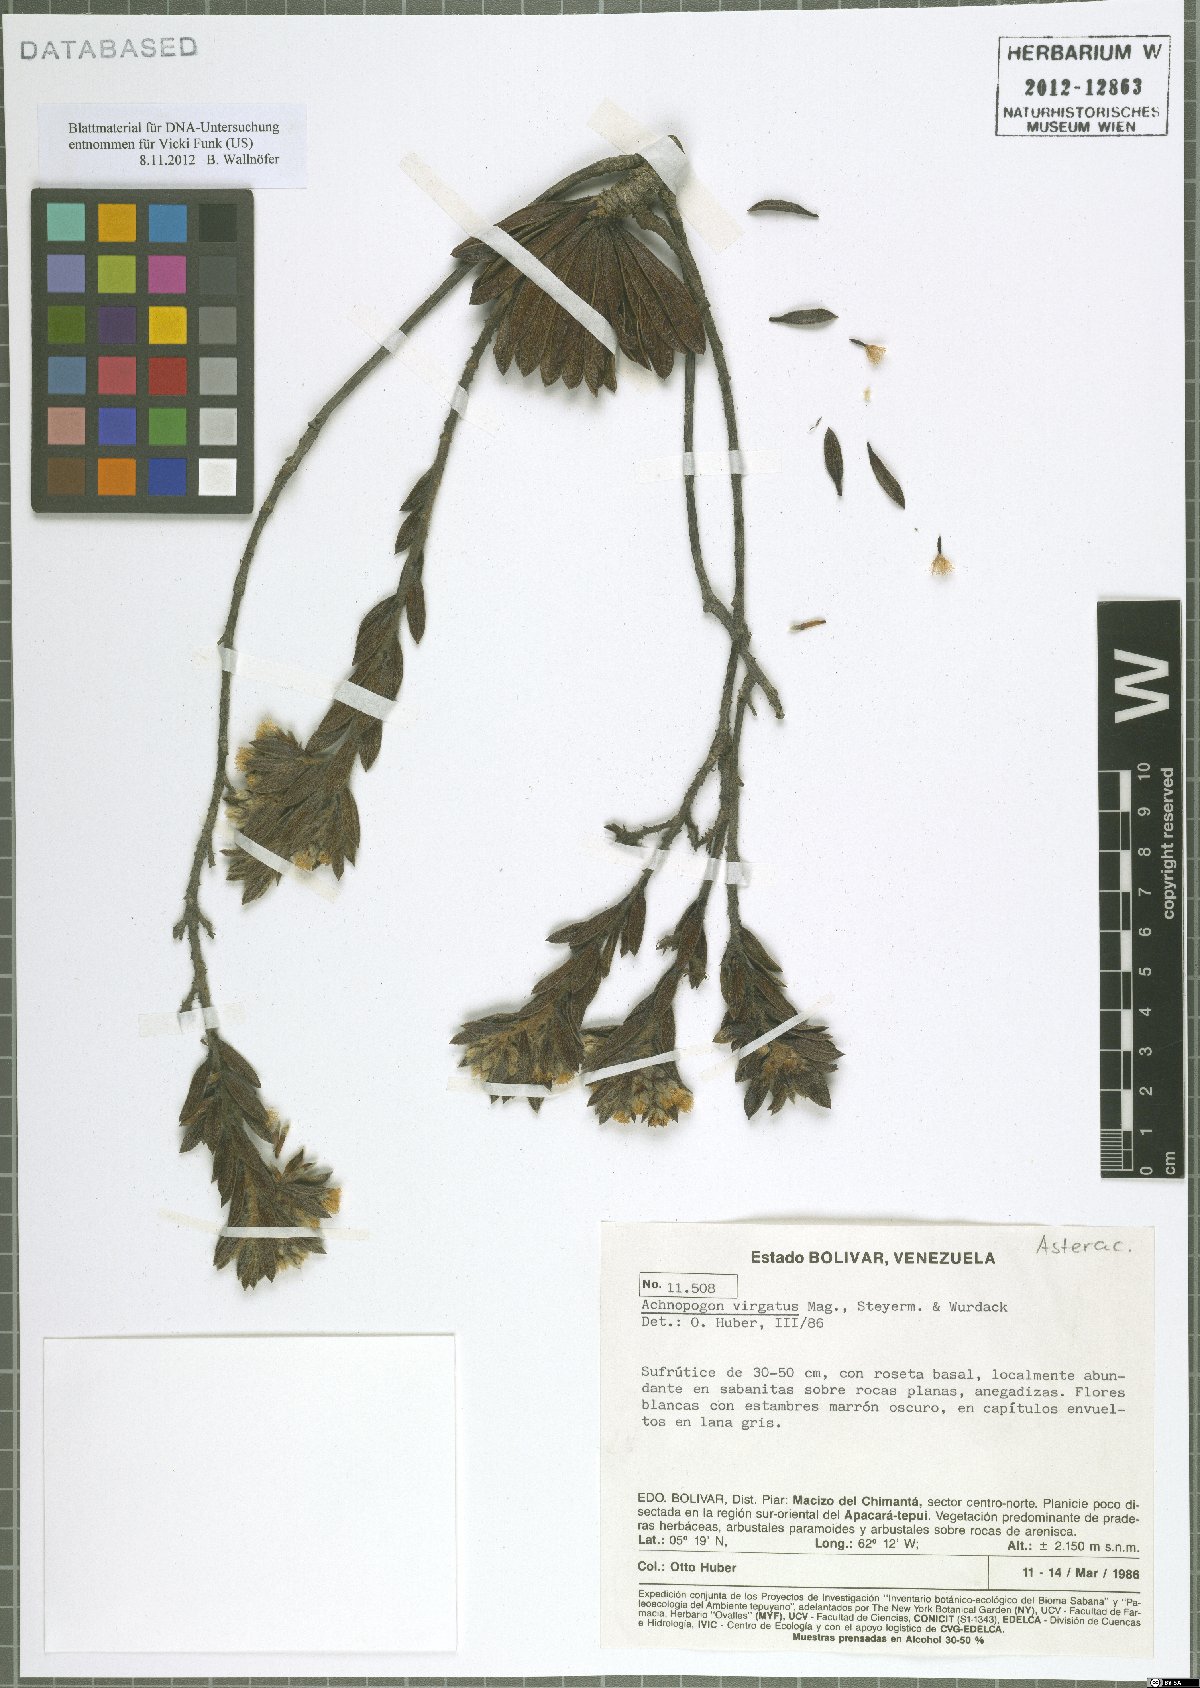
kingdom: Plantae
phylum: Tracheophyta
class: Magnoliopsida
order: Asterales
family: Asteraceae
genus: Achnopogon
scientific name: Achnopogon virgatus
